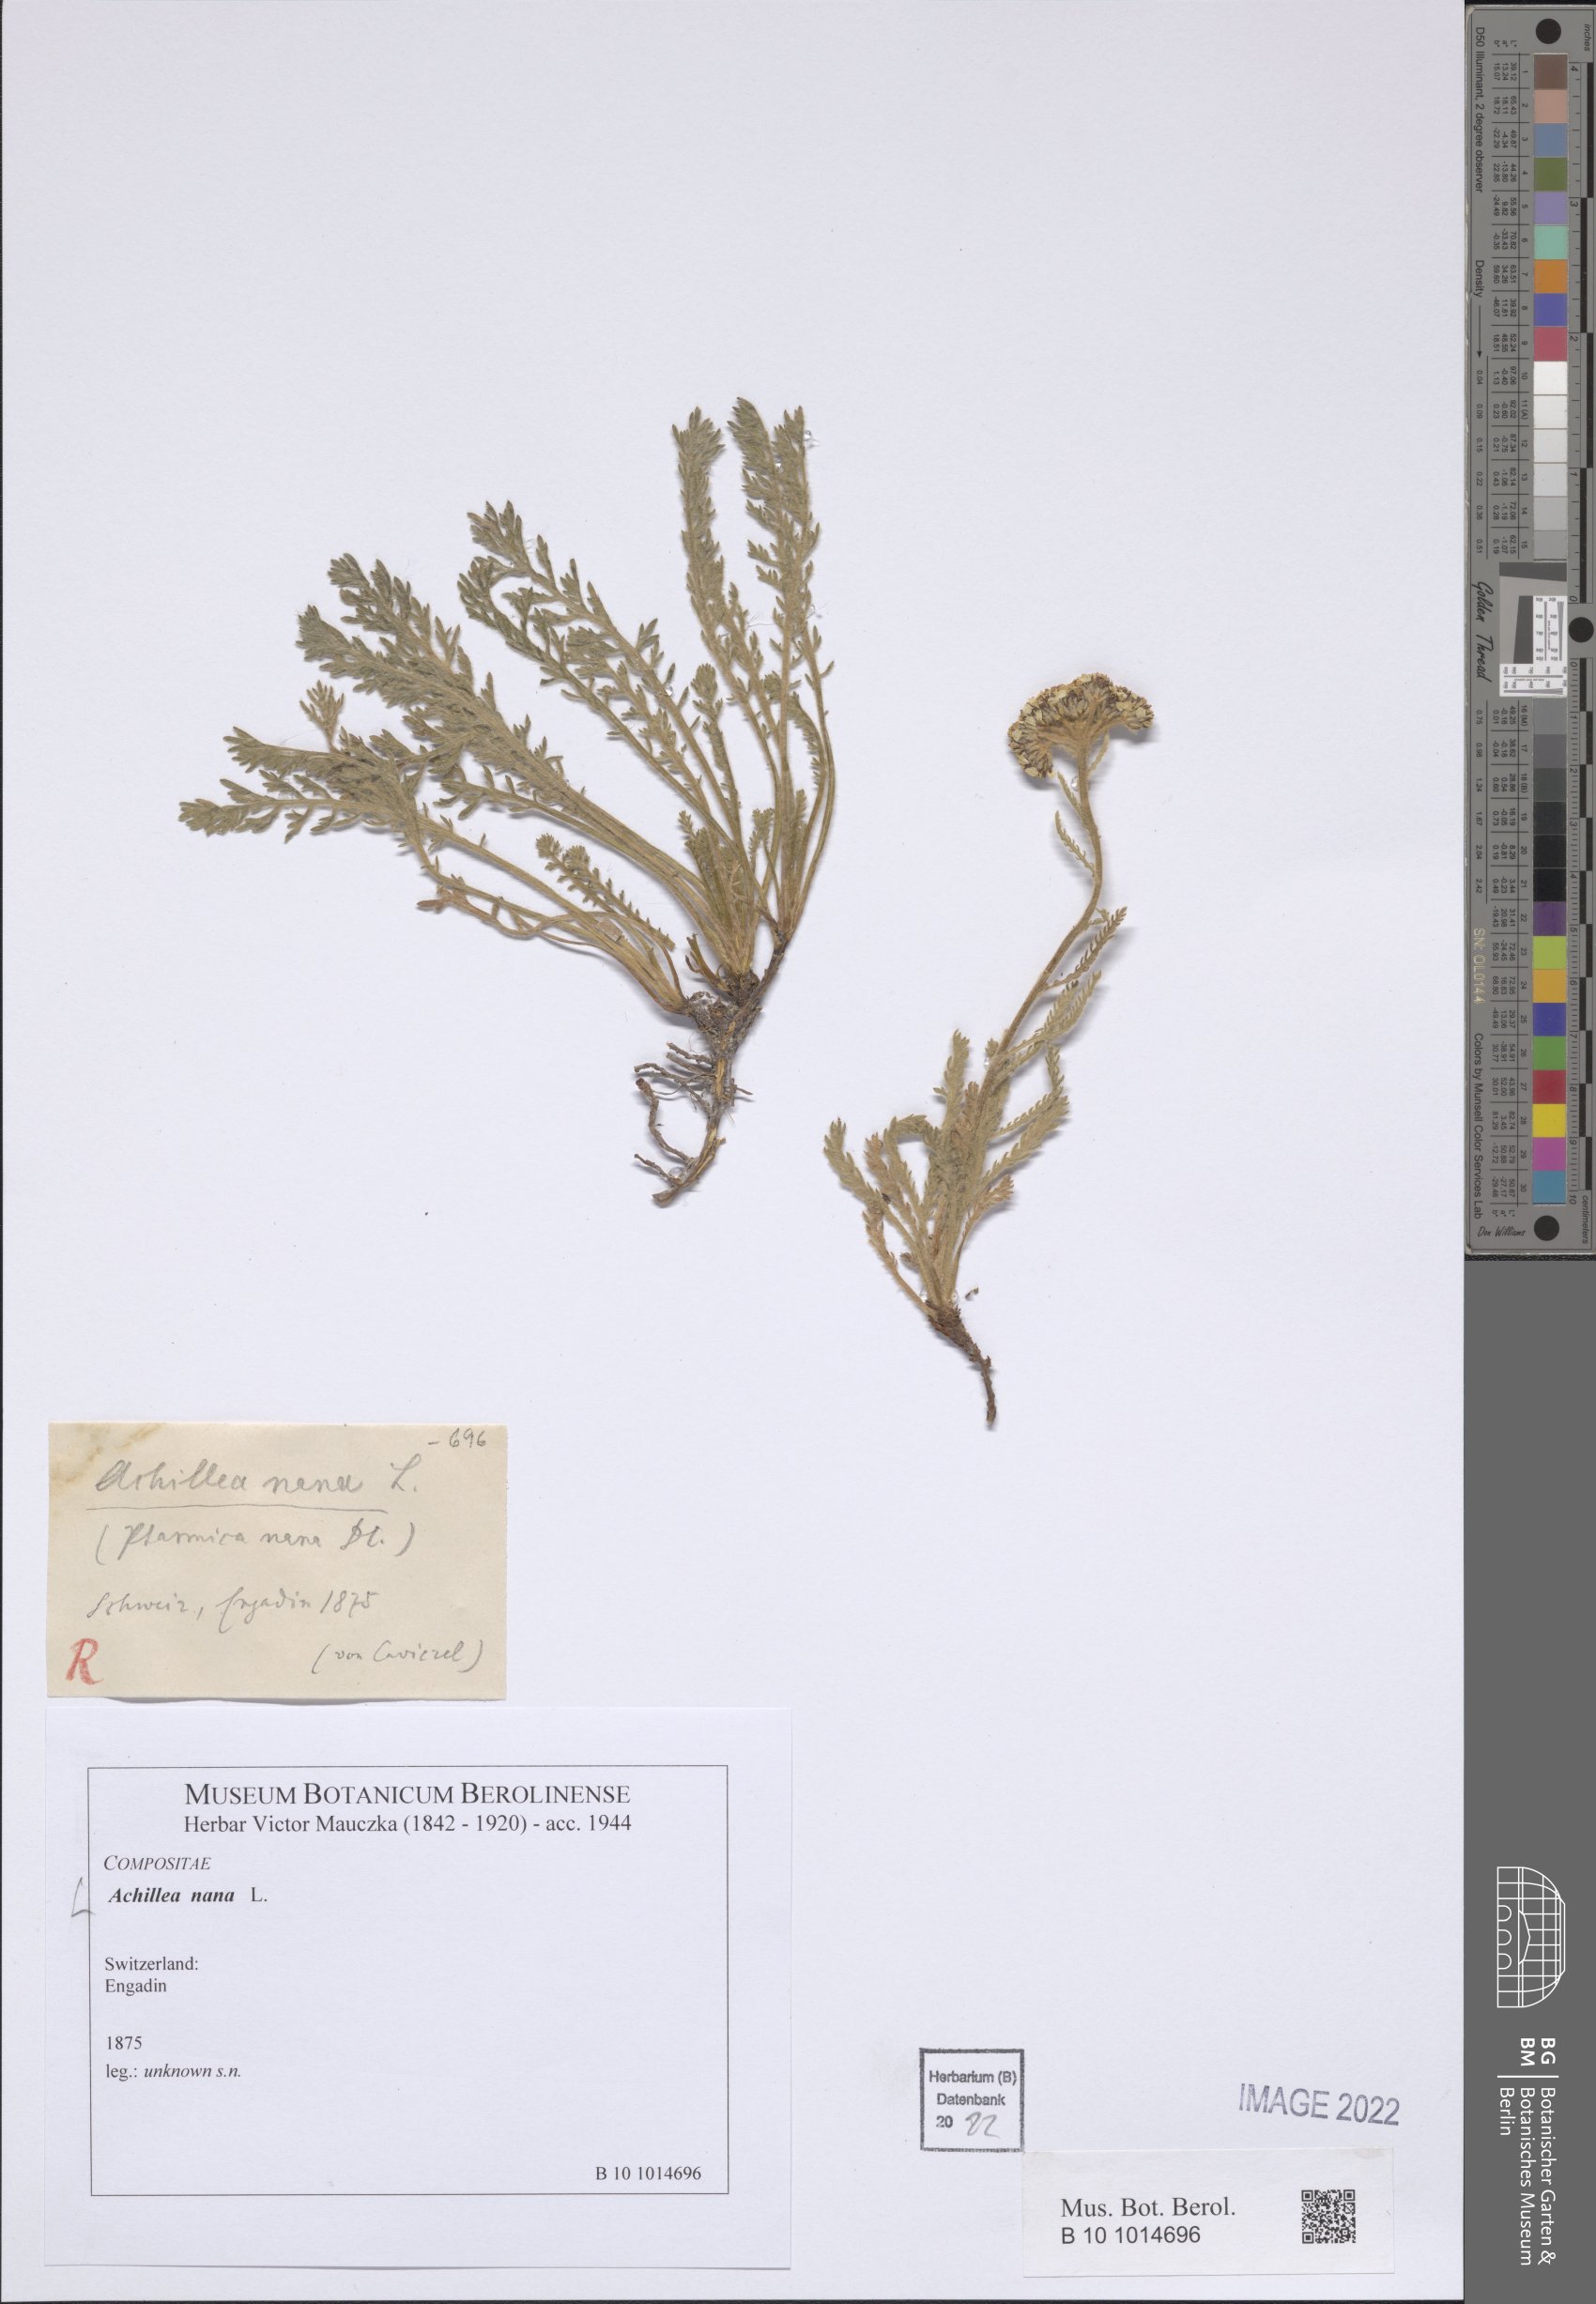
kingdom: Plantae
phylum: Tracheophyta
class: Magnoliopsida
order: Asterales
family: Asteraceae
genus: Achillea
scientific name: Achillea nana
